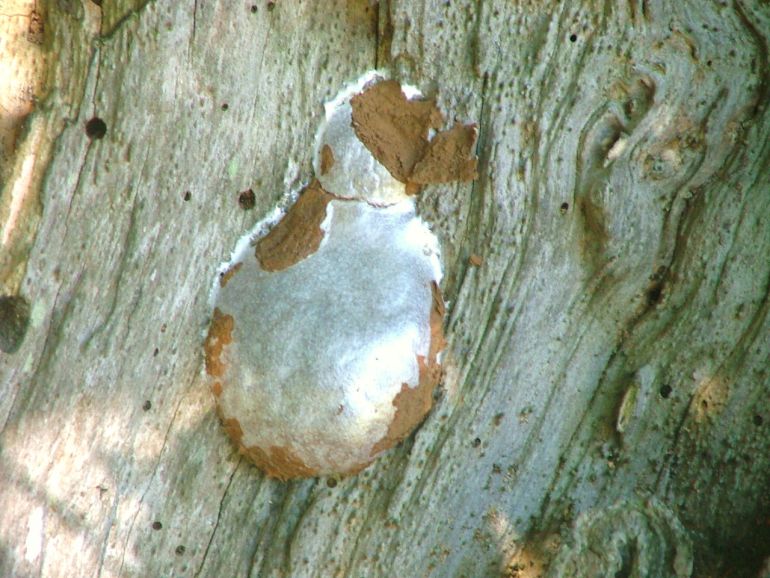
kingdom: Protozoa
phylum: Mycetozoa
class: Myxomycetes
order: Cribrariales
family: Tubiferaceae
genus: Reticularia
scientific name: Reticularia lycoperdon
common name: skinnende støvpude
